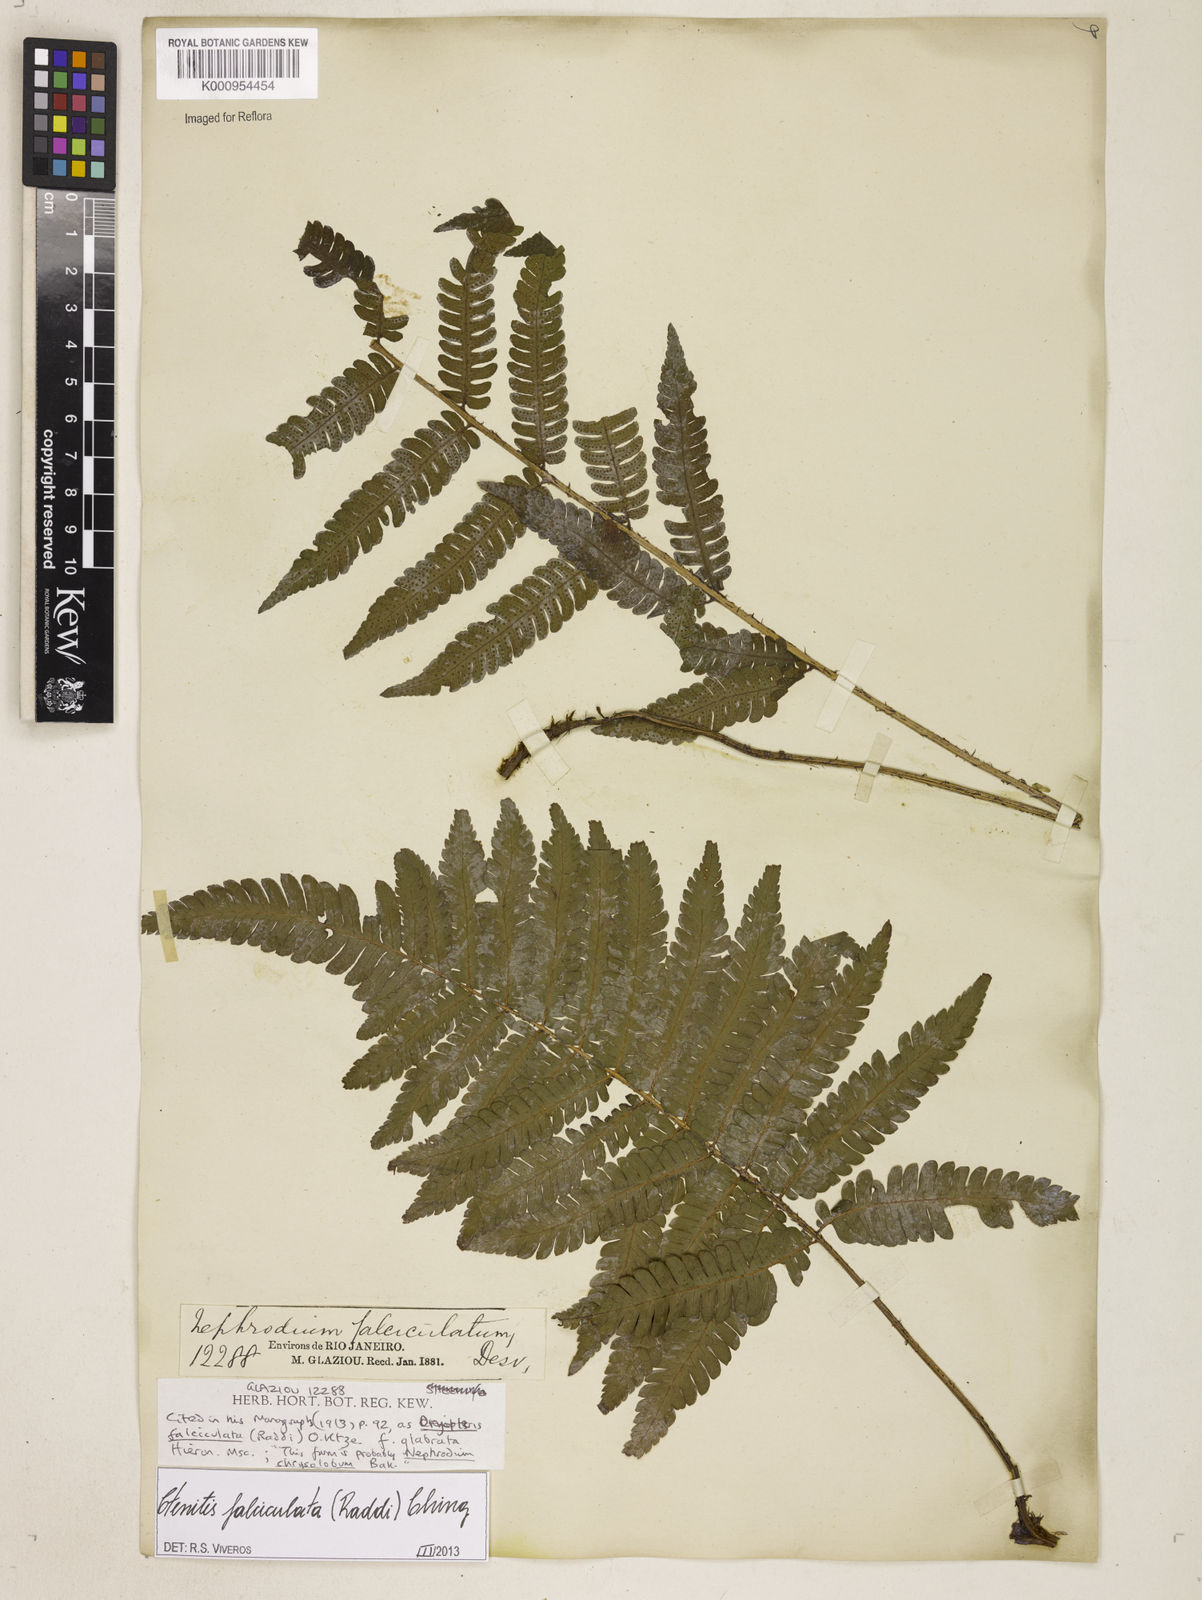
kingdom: Plantae
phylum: Tracheophyta
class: Polypodiopsida
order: Polypodiales
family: Dryopteridaceae
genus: Ctenitis
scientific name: Ctenitis falciculata
